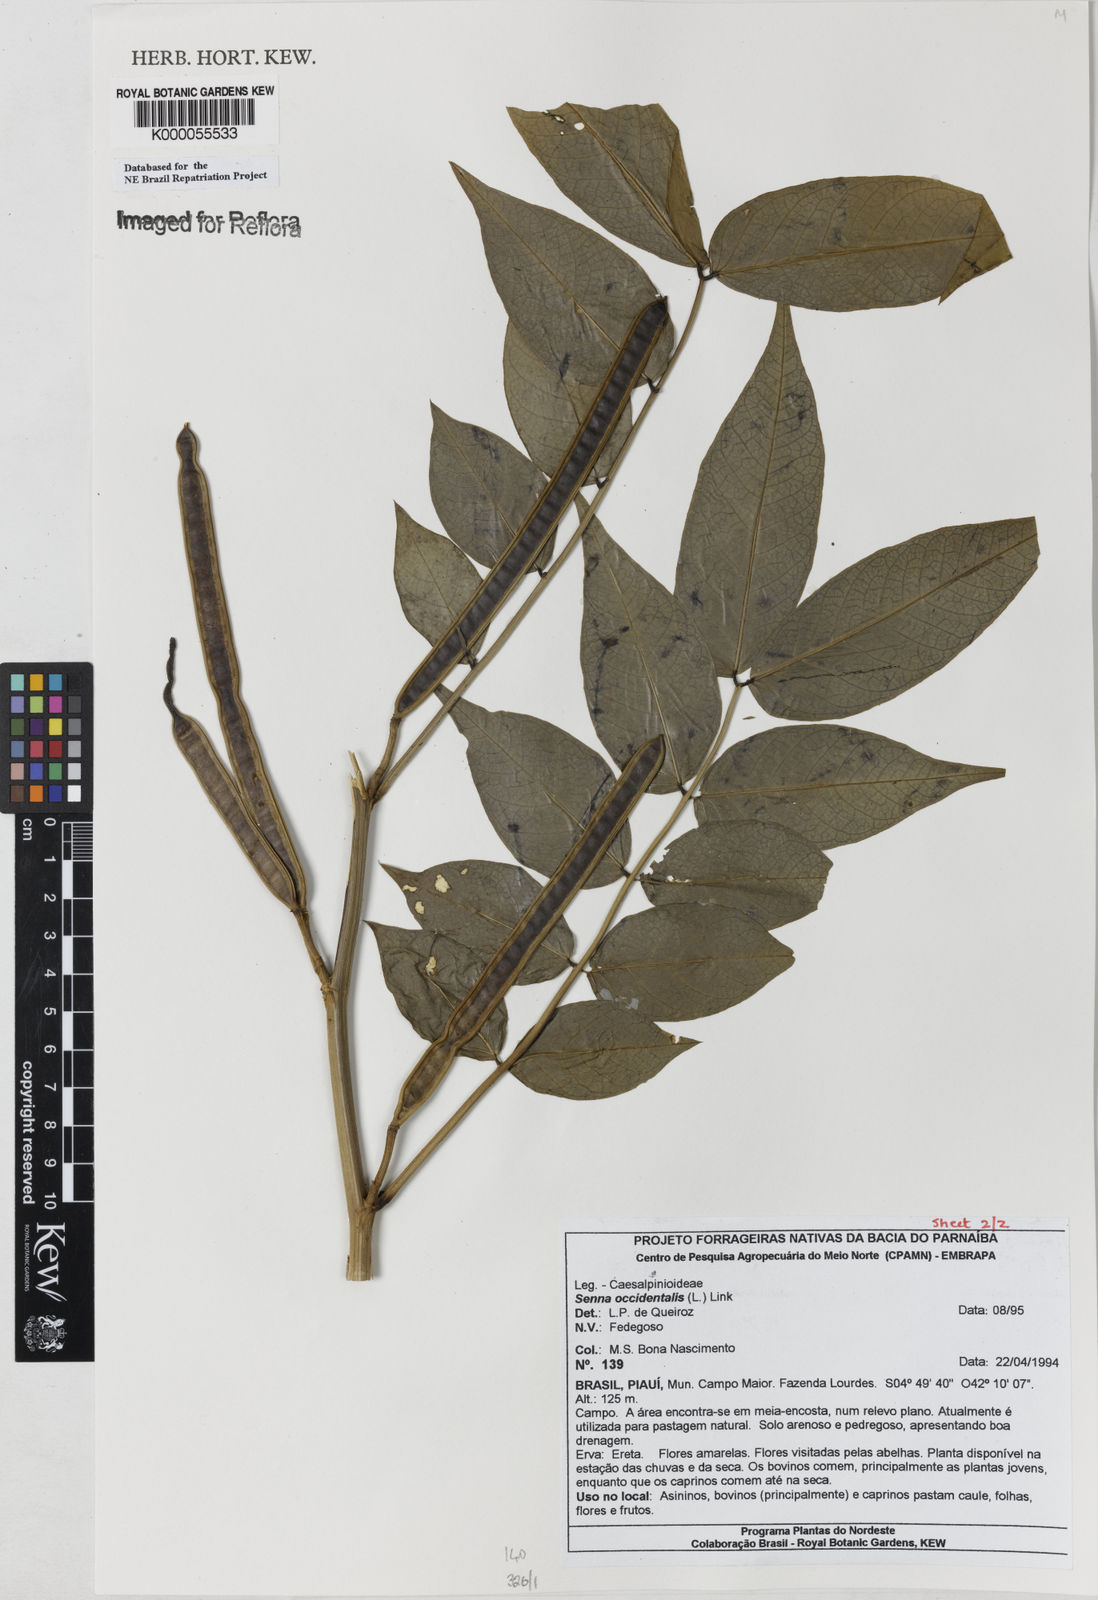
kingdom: Plantae
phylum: Tracheophyta
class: Magnoliopsida
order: Fabales
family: Fabaceae
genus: Senna
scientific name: Senna occidentalis
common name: Septicweed
